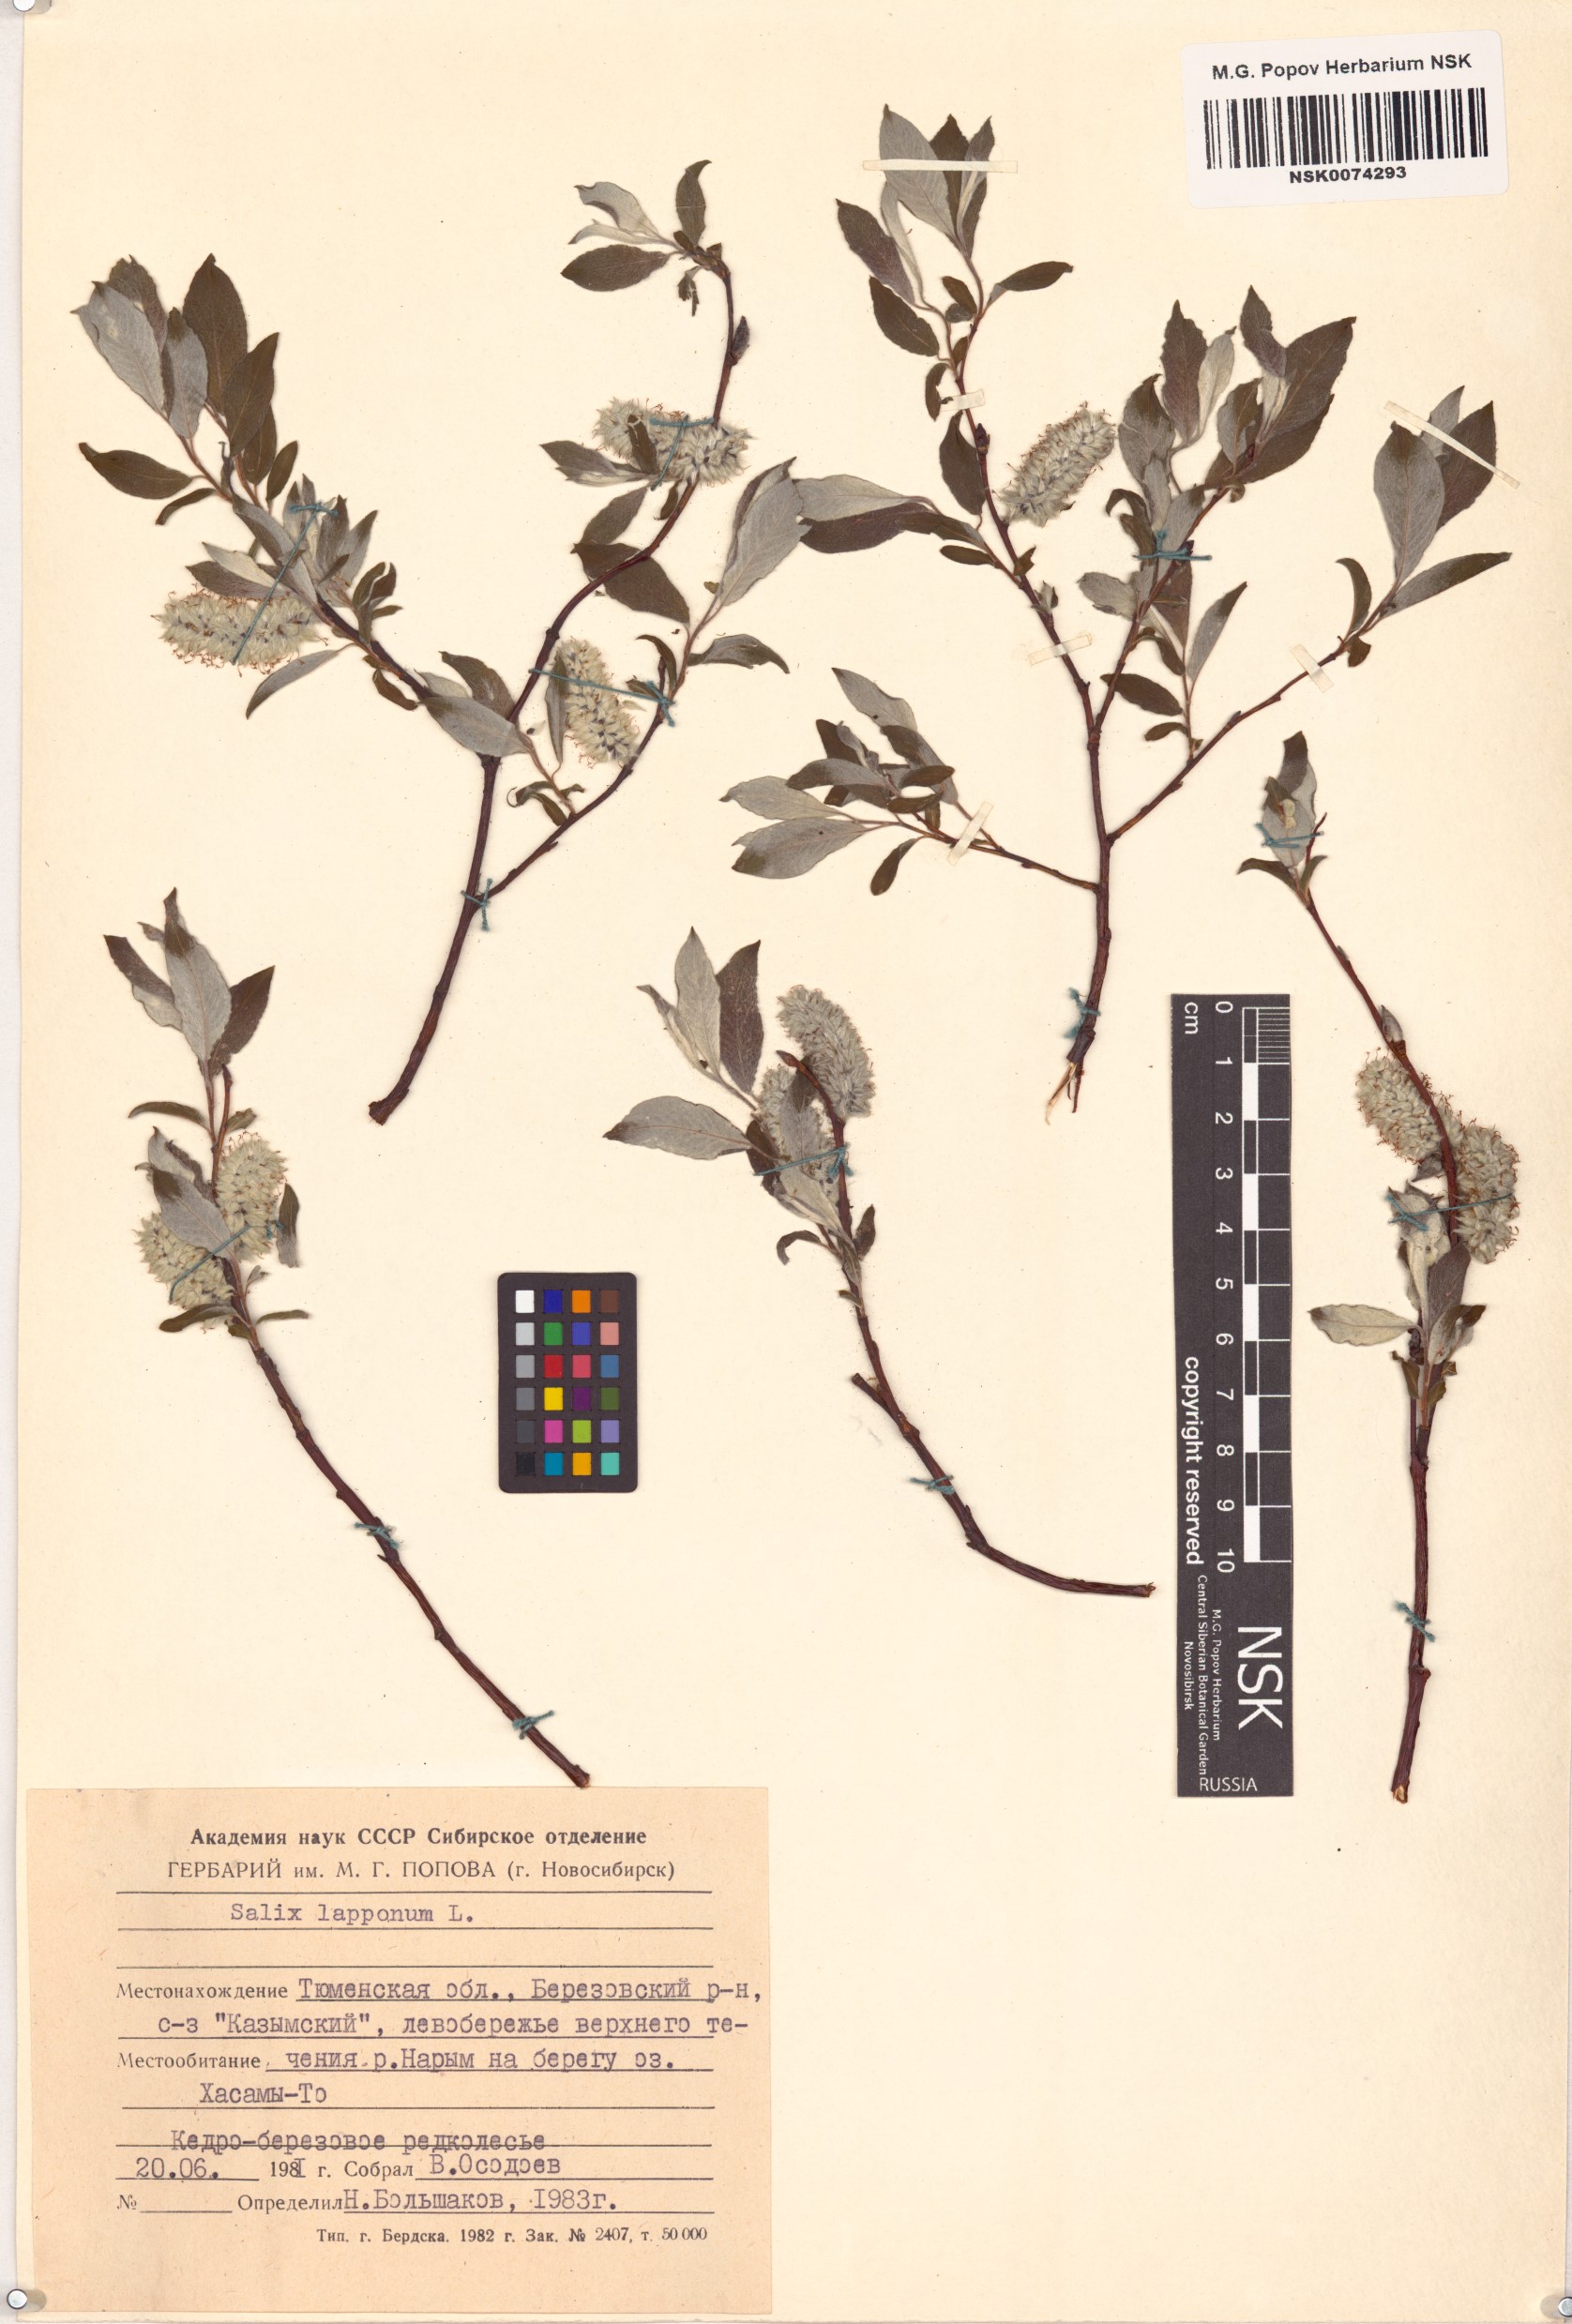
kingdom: Plantae
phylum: Tracheophyta
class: Magnoliopsida
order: Malpighiales
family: Salicaceae
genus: Salix
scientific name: Salix lapponum
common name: Downy willow
